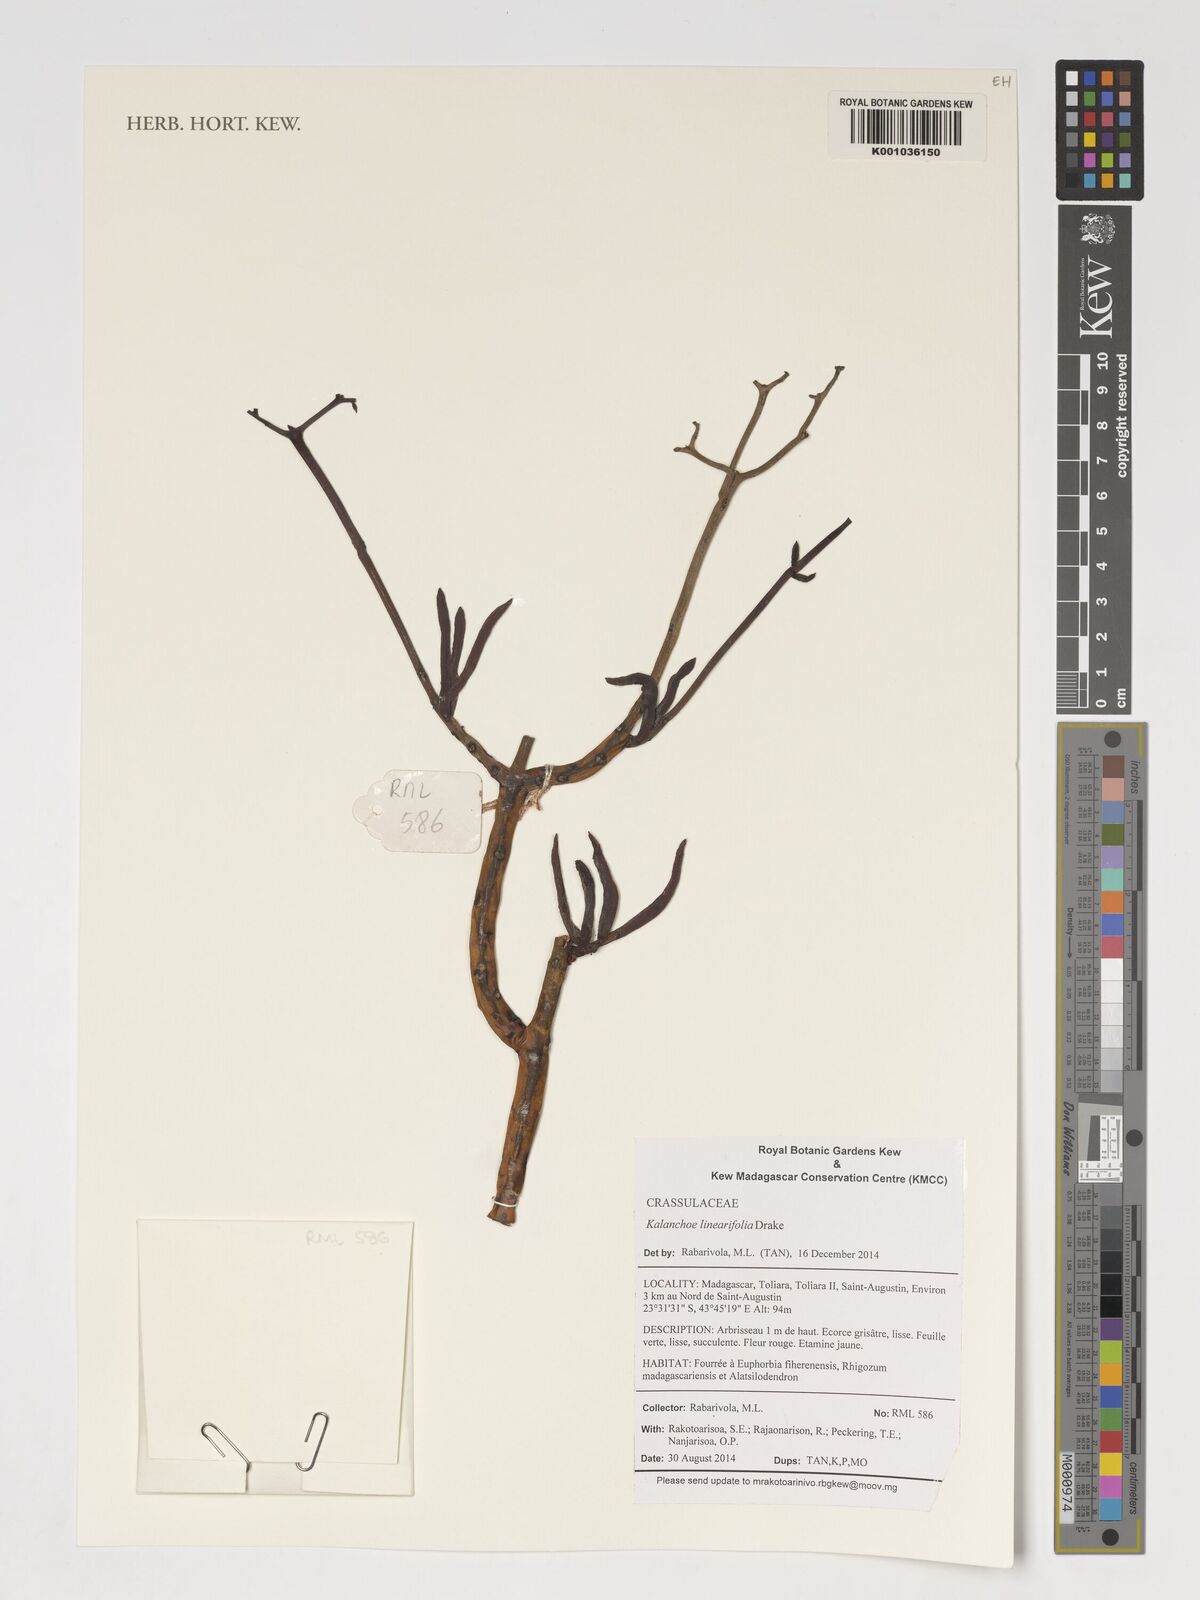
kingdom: Plantae
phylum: Tracheophyta
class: Magnoliopsida
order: Saxifragales
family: Crassulaceae
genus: Kalanchoe
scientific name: Kalanchoe linearifolia
